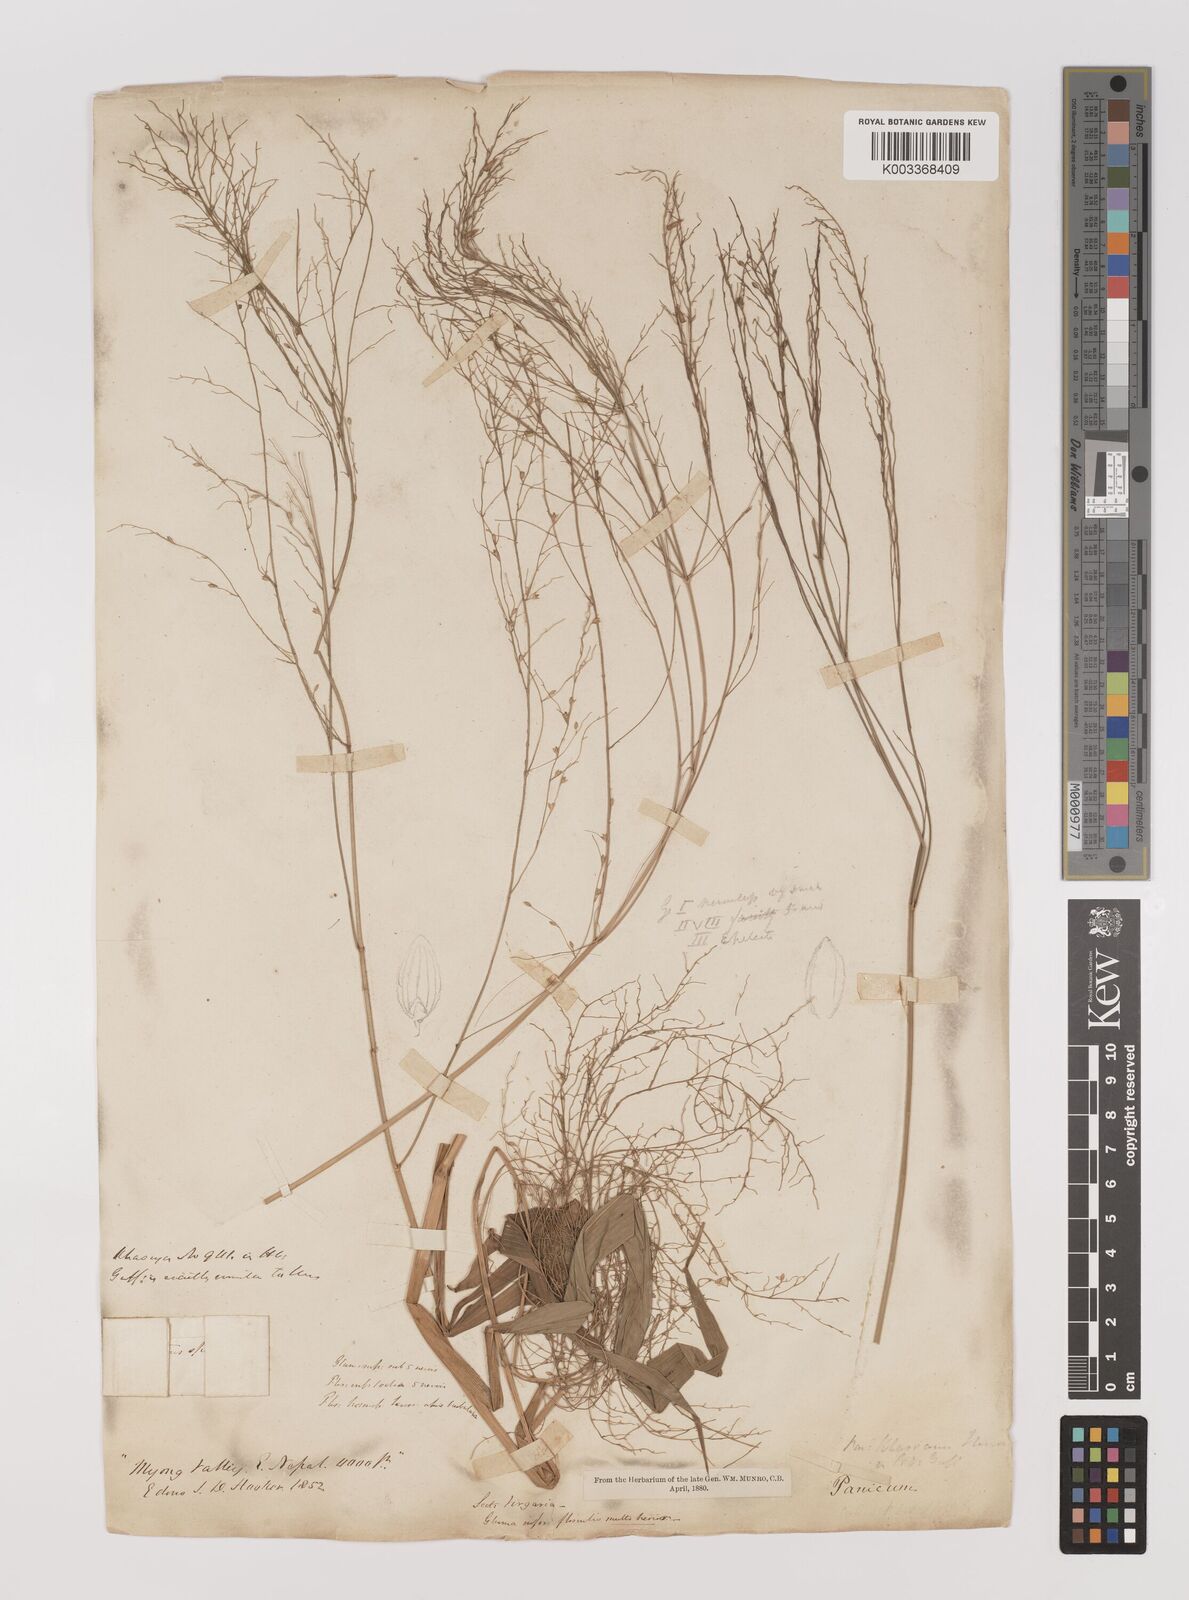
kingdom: Plantae
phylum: Tracheophyta
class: Liliopsida
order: Poales
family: Poaceae
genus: Panicum
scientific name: Panicum khasianum
